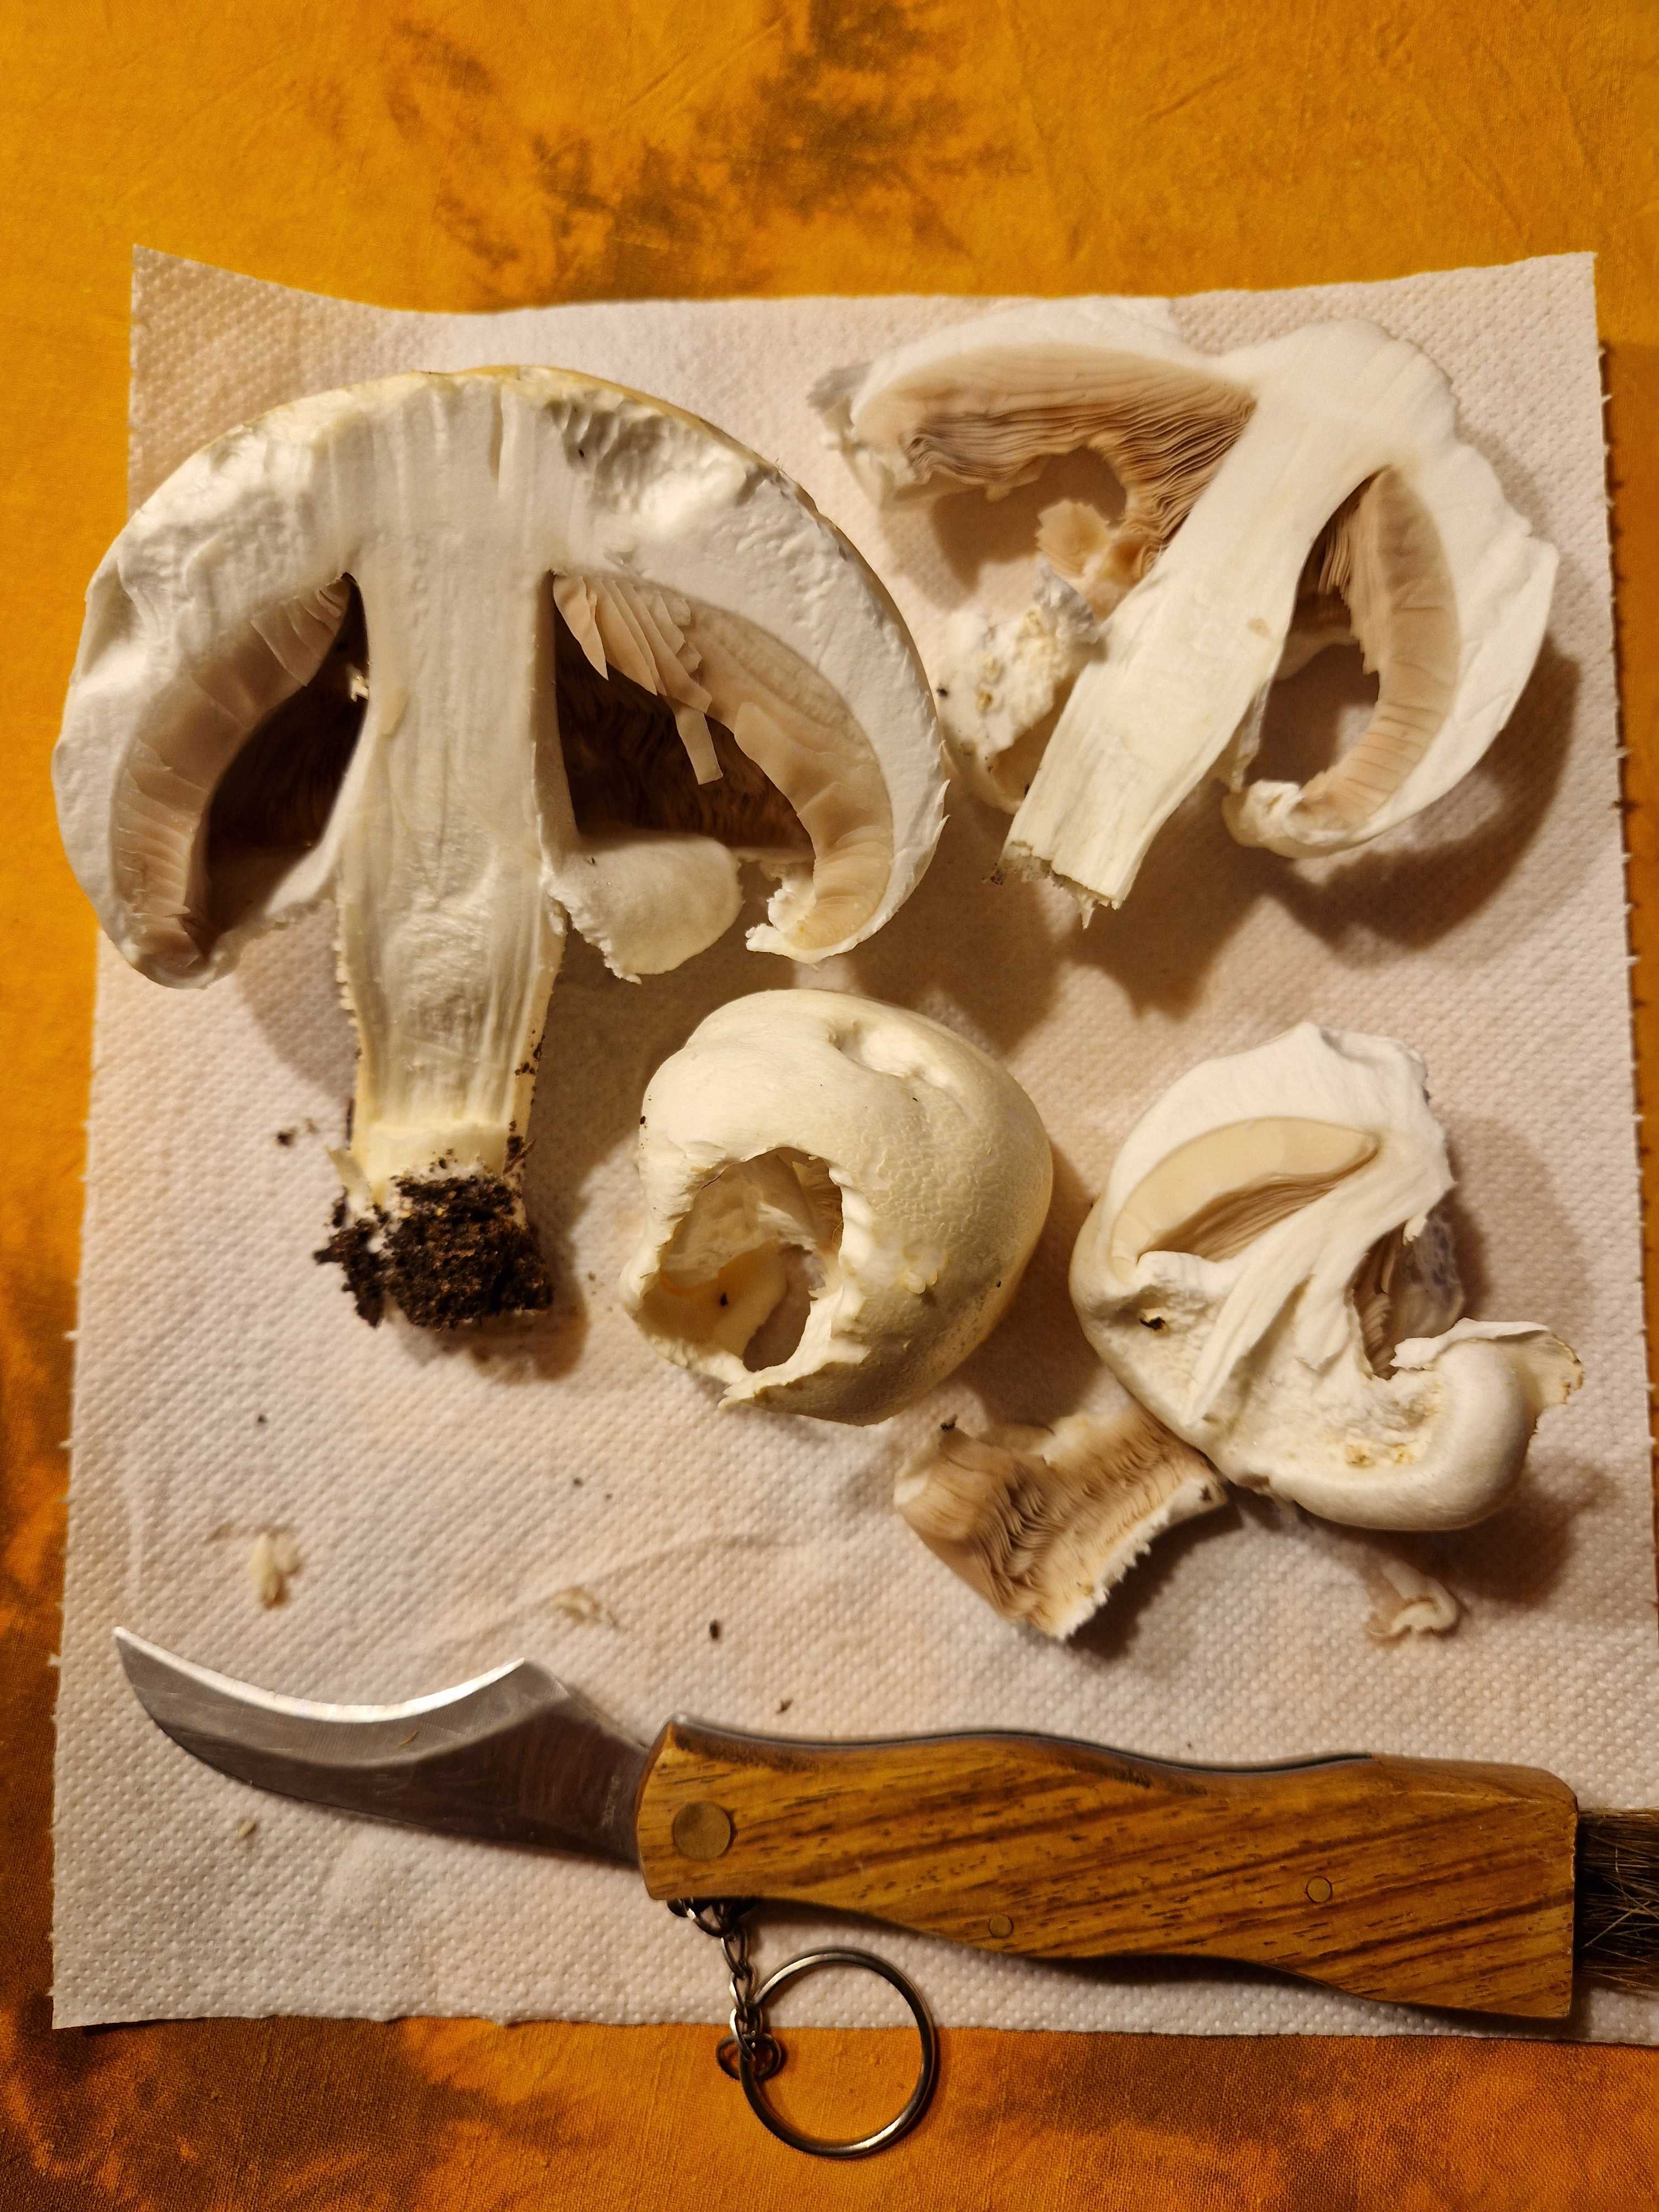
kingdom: Fungi
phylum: Basidiomycota
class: Agaricomycetes
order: Agaricales
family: Agaricaceae
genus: Agaricus
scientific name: Agaricus xanthodermus
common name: karbol-champignon
